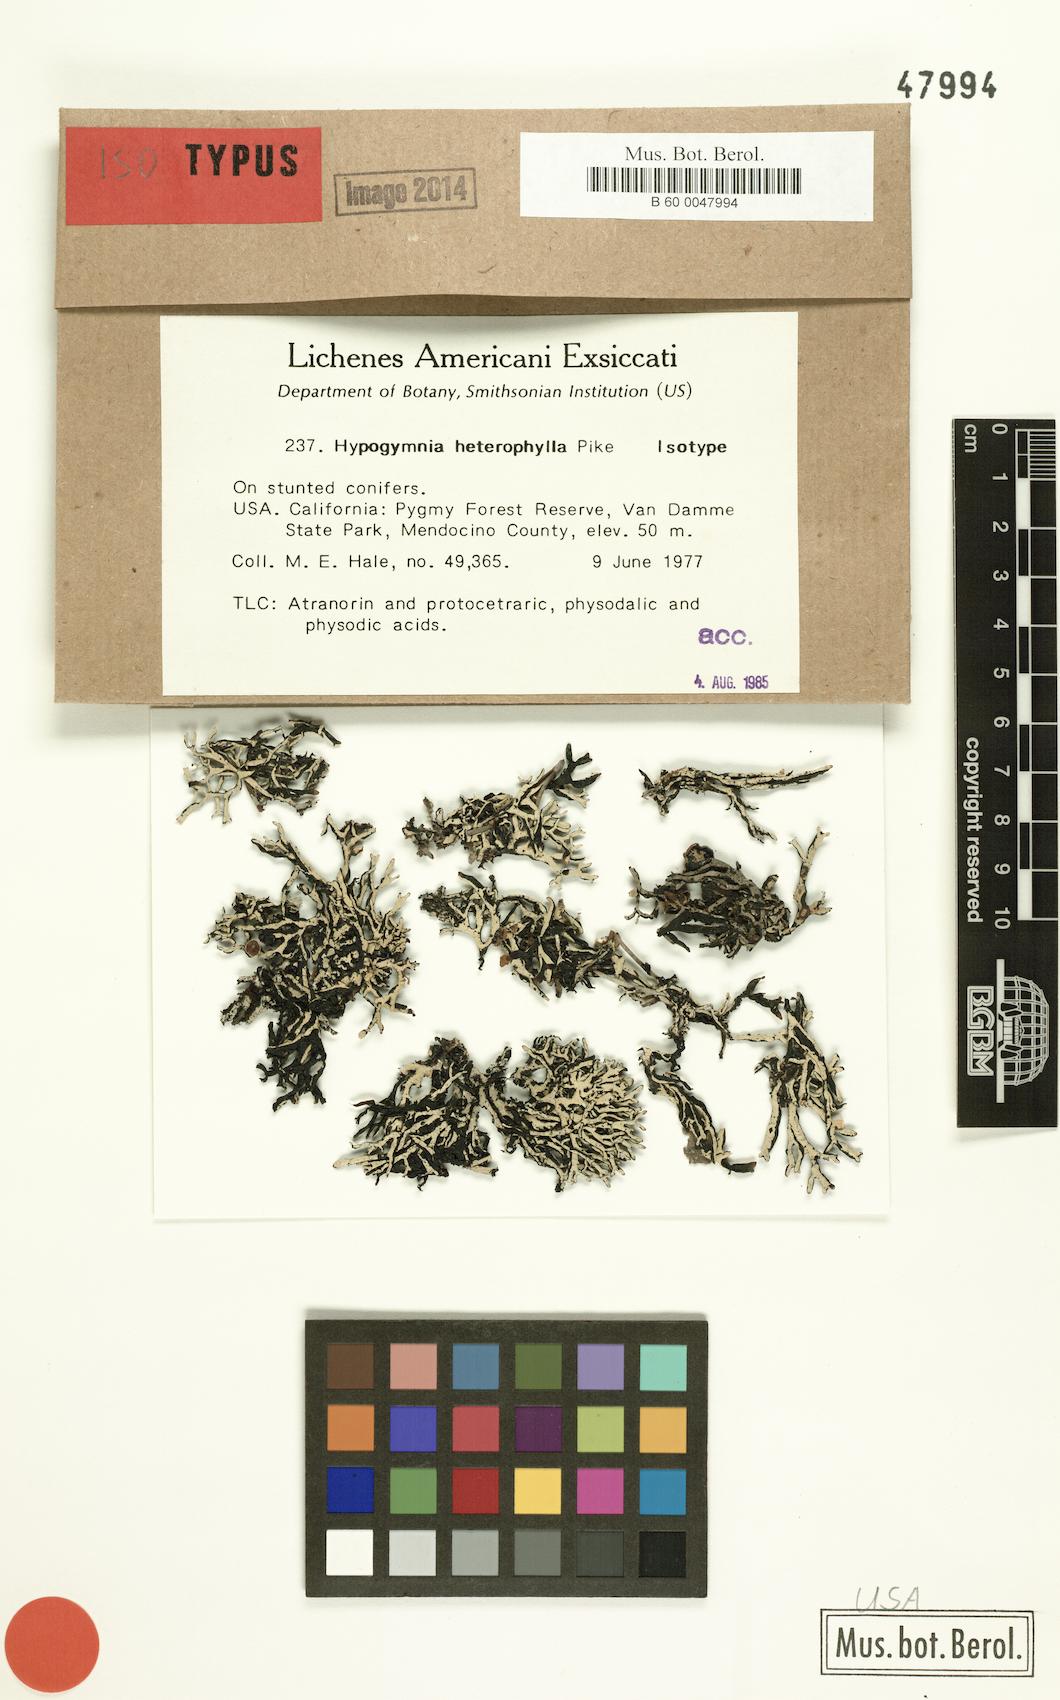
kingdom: Fungi
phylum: Ascomycota
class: Lecanoromycetes
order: Lecanorales
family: Parmeliaceae
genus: Hypogymnia
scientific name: Hypogymnia heterophylla
